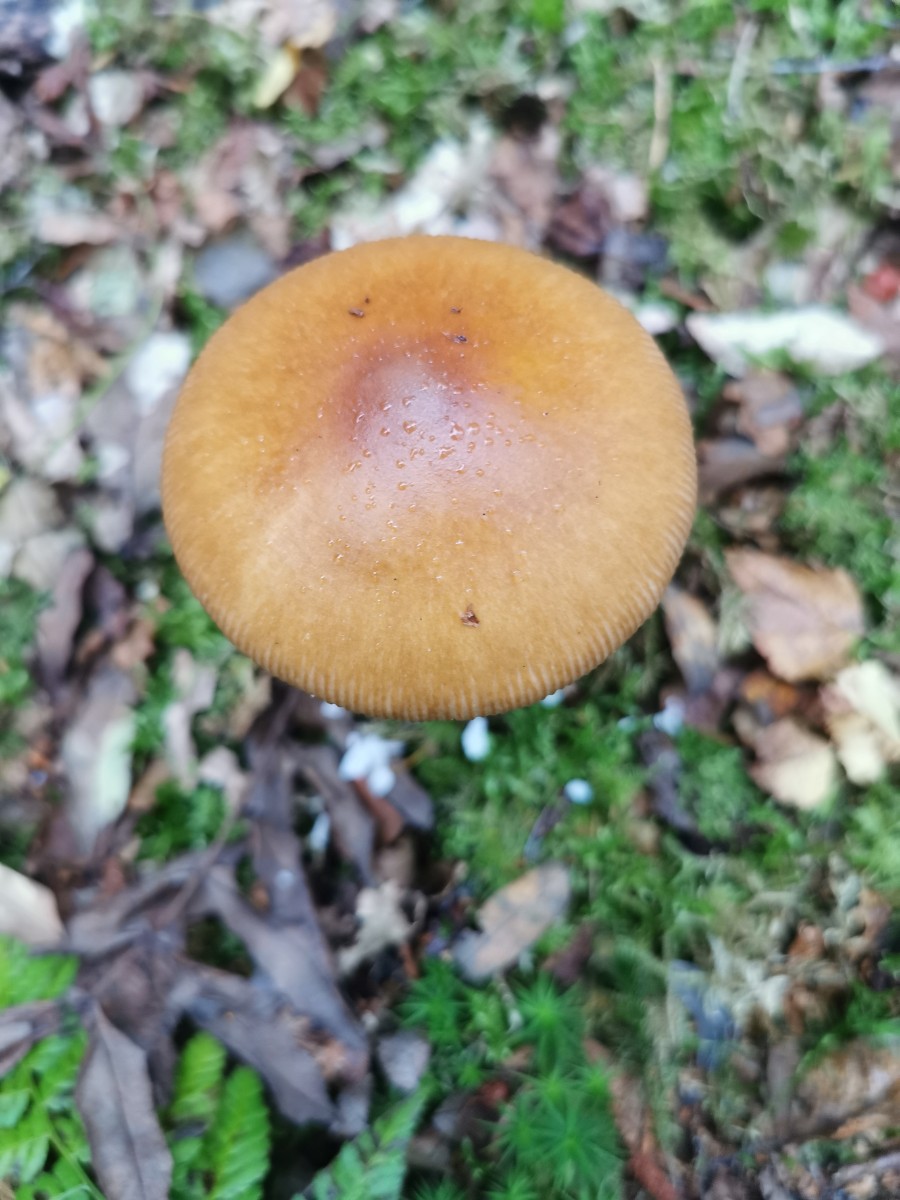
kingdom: Fungi
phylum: Basidiomycota
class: Agaricomycetes
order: Agaricales
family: Amanitaceae
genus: Amanita
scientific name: Amanita fulva
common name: brun kam-fluesvamp
